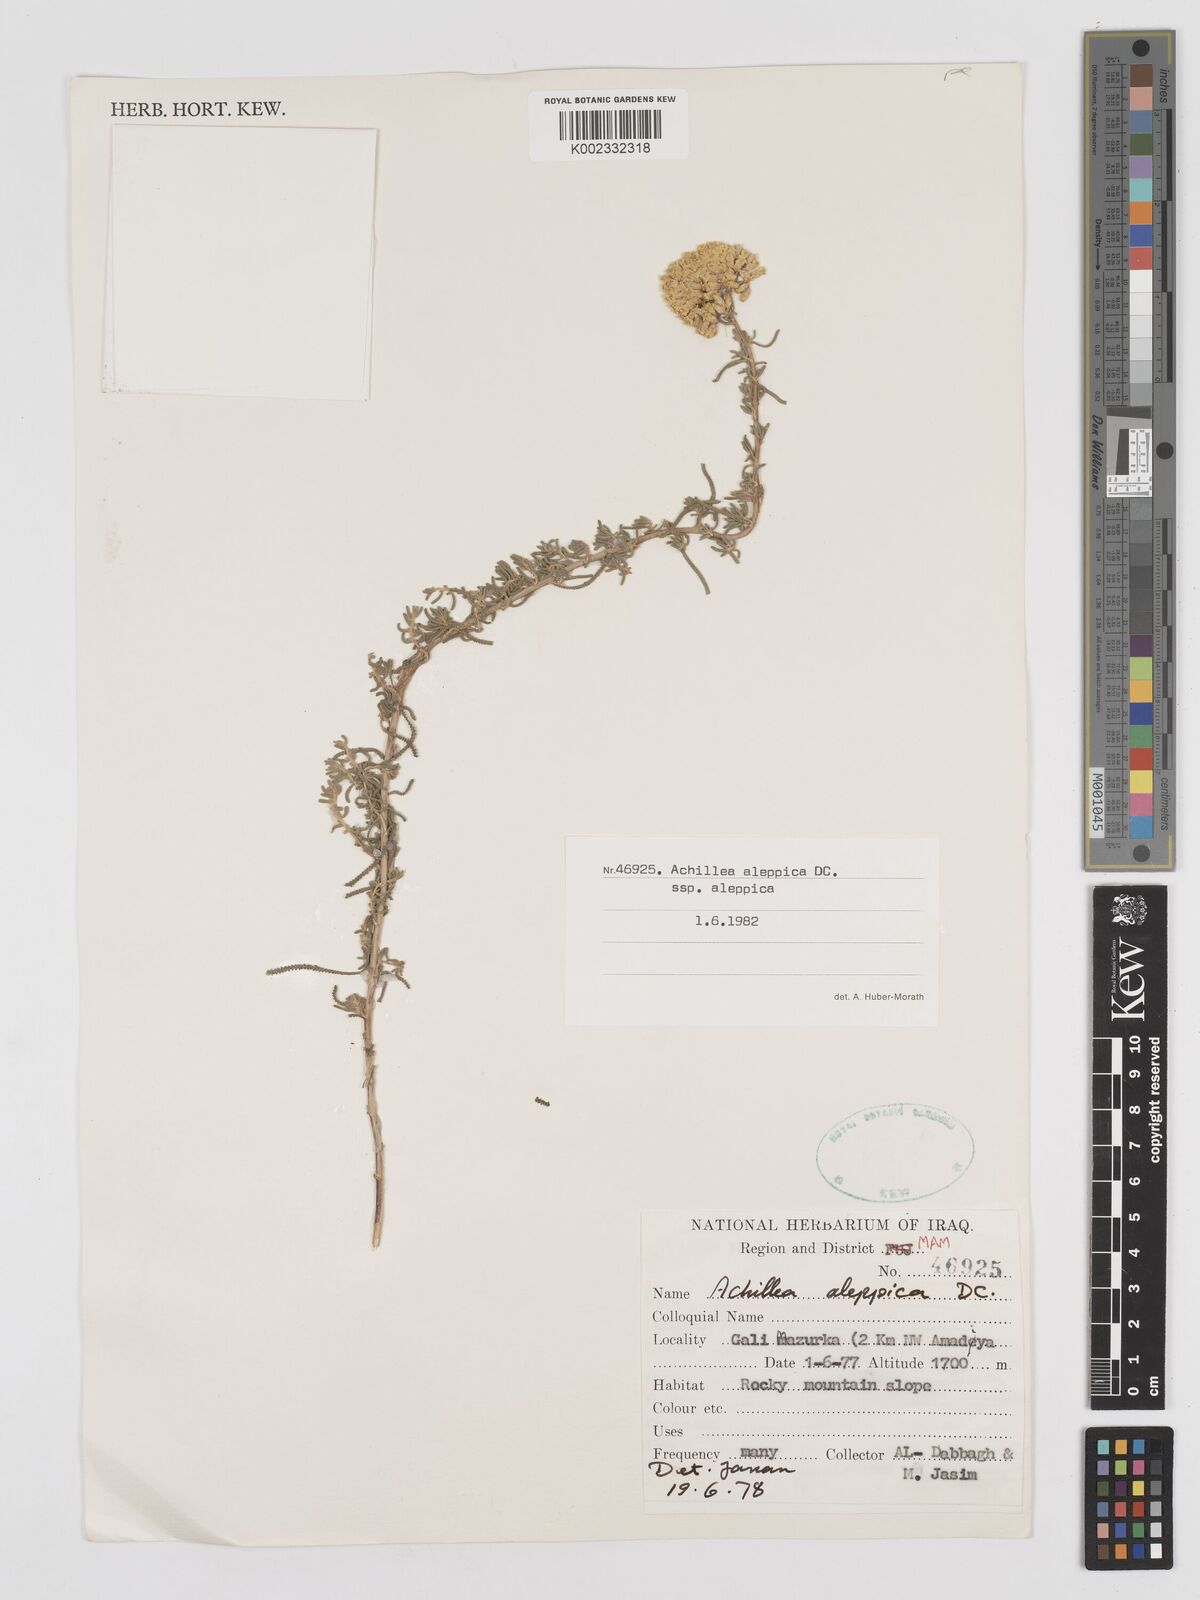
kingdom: Plantae
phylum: Tracheophyta
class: Magnoliopsida
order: Asterales
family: Asteraceae
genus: Achillea
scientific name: Achillea aleppica
